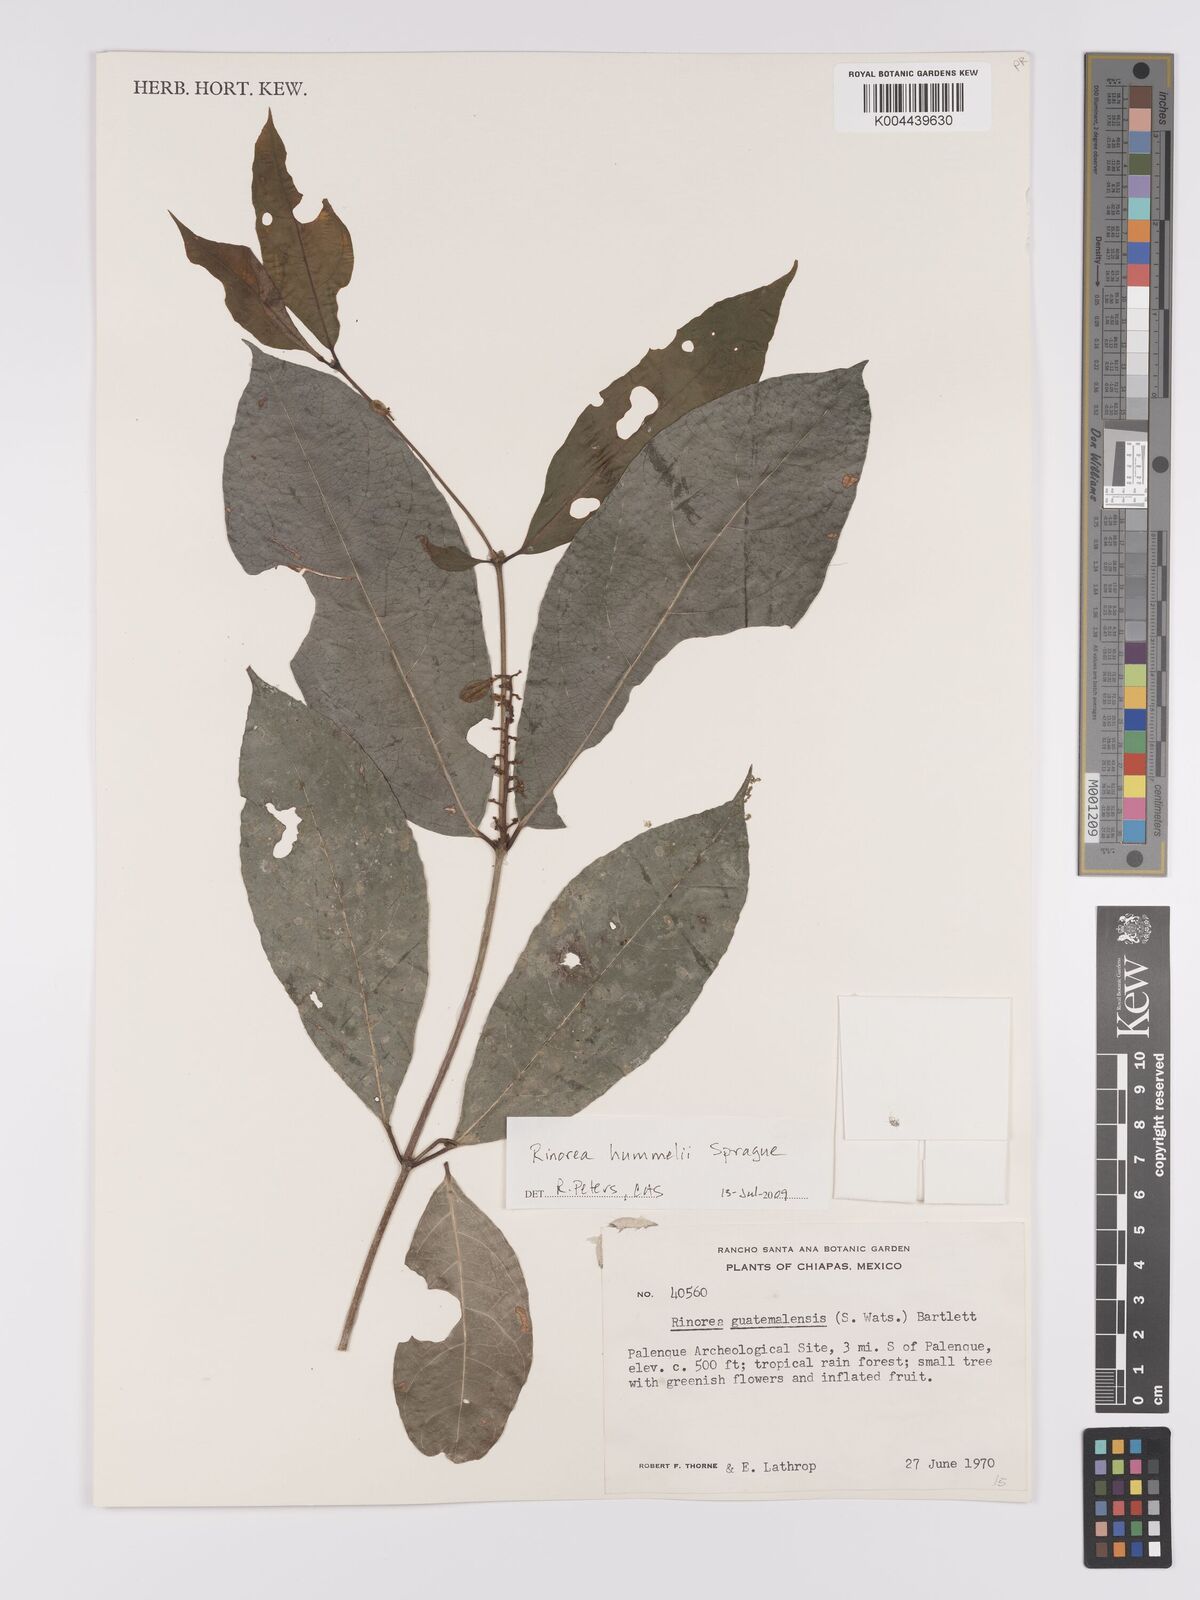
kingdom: Plantae
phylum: Tracheophyta
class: Magnoliopsida
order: Malpighiales
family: Violaceae
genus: Rinorea
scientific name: Rinorea hummelii
